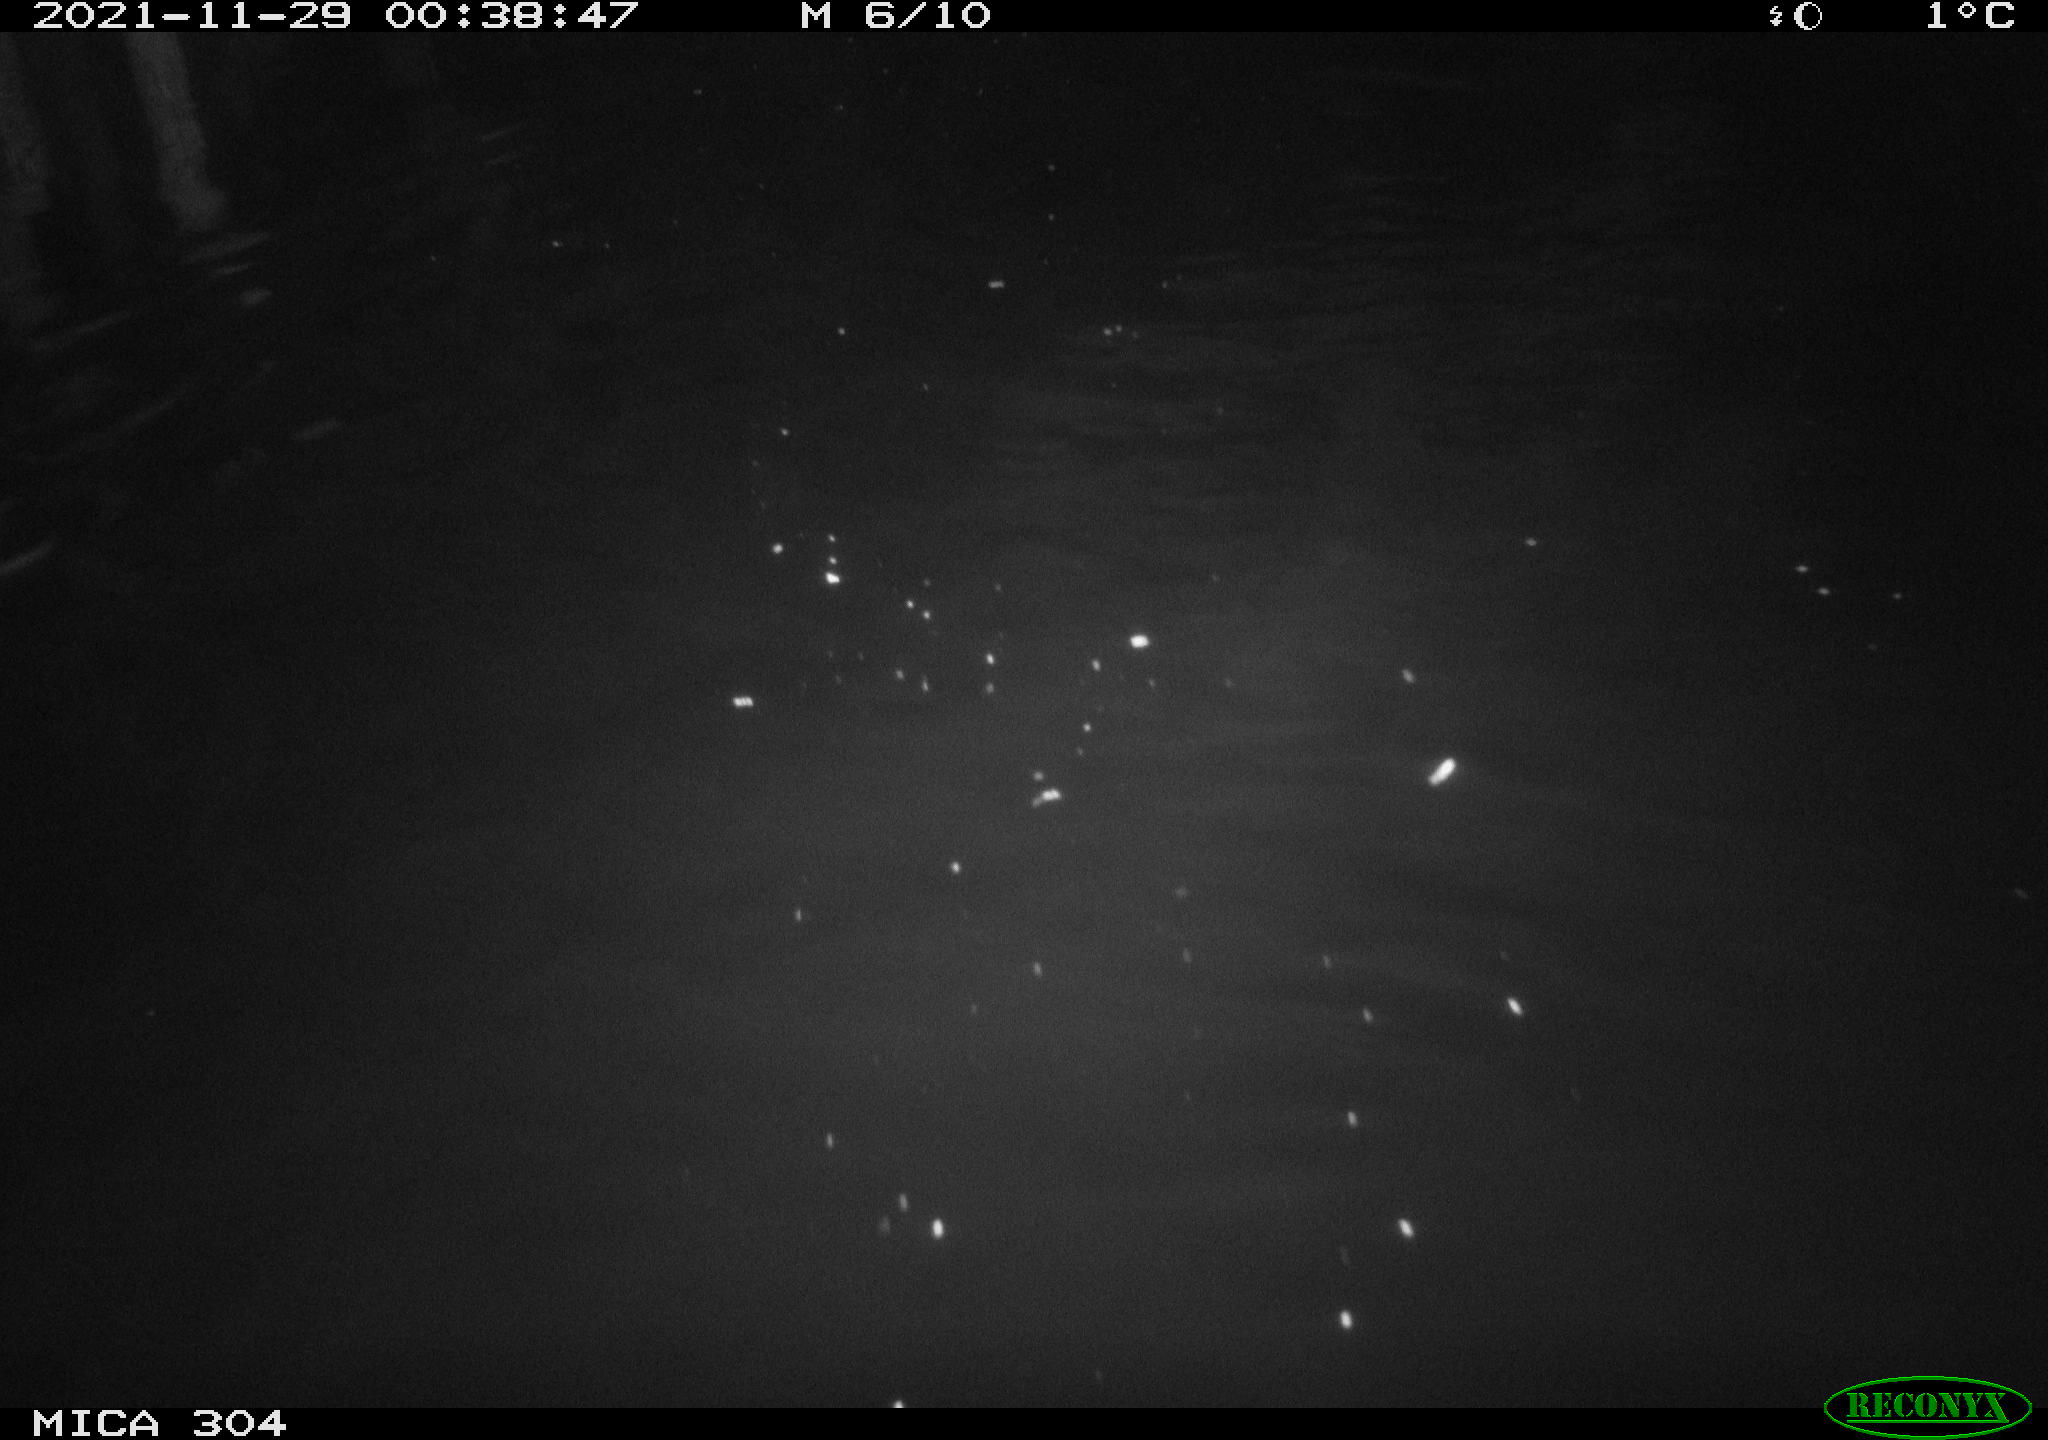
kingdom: Animalia
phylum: Chordata
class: Mammalia
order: Rodentia
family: Cricetidae
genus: Ondatra
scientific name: Ondatra zibethicus
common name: Muskrat
